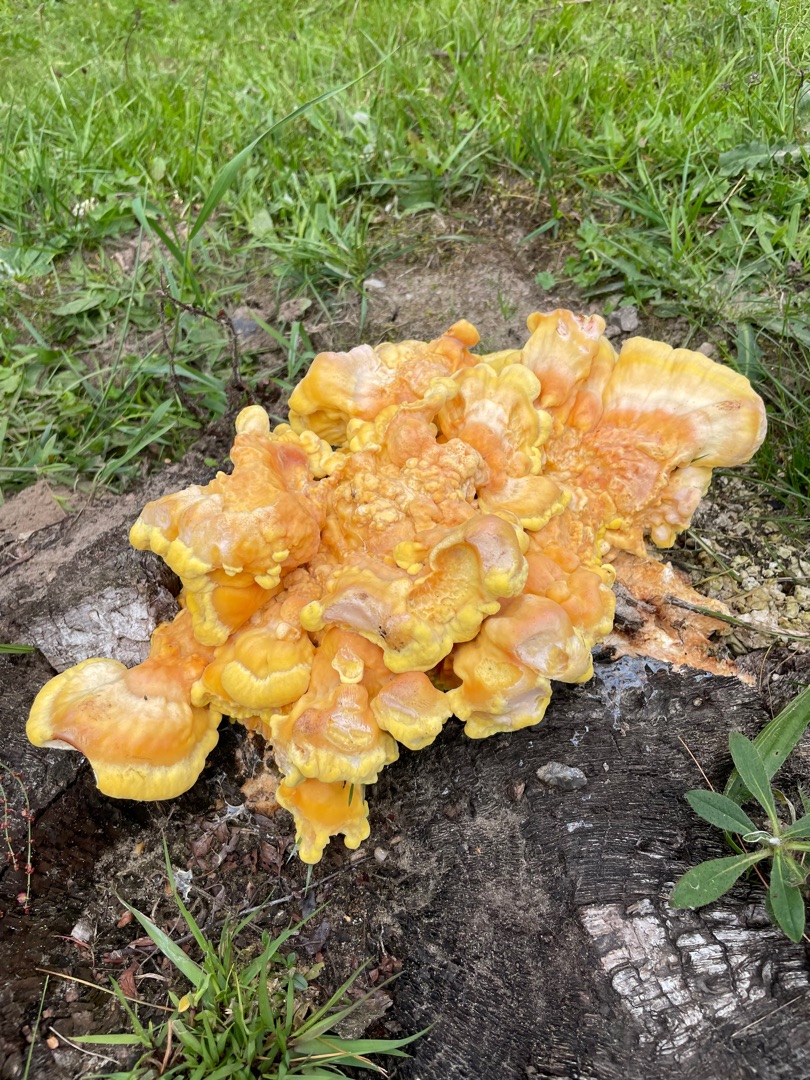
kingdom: Fungi
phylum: Basidiomycota
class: Agaricomycetes
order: Polyporales
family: Laetiporaceae
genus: Laetiporus
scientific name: Laetiporus sulphureus
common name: Svovlporesvamp
